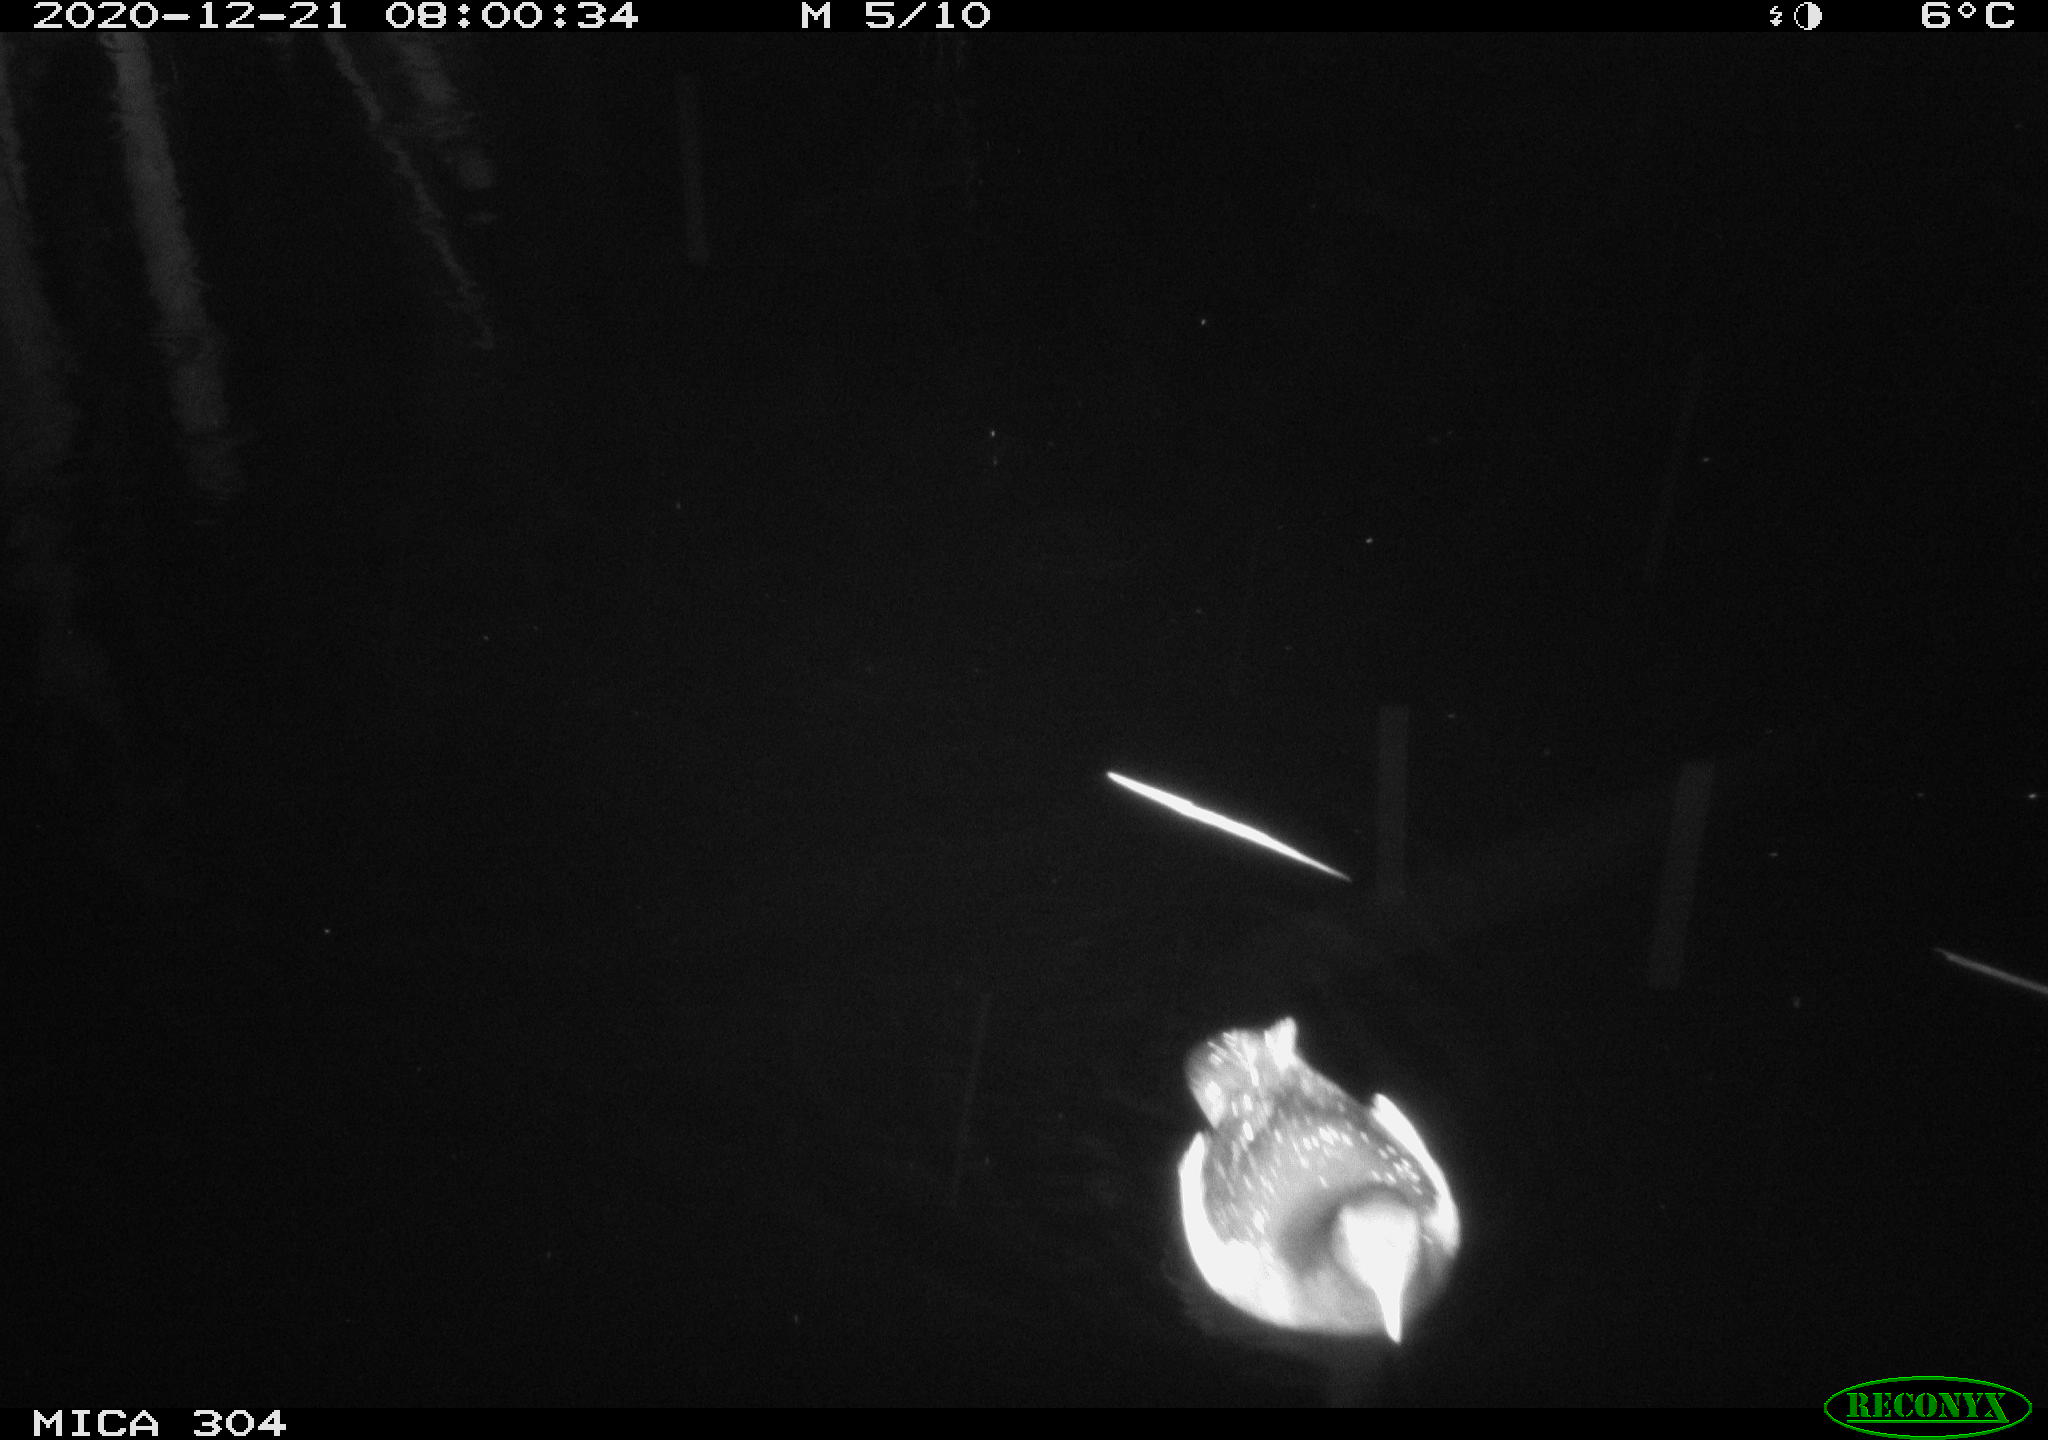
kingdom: Animalia
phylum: Chordata
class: Aves
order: Gruiformes
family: Rallidae
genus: Gallinula
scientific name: Gallinula chloropus
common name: Common moorhen
